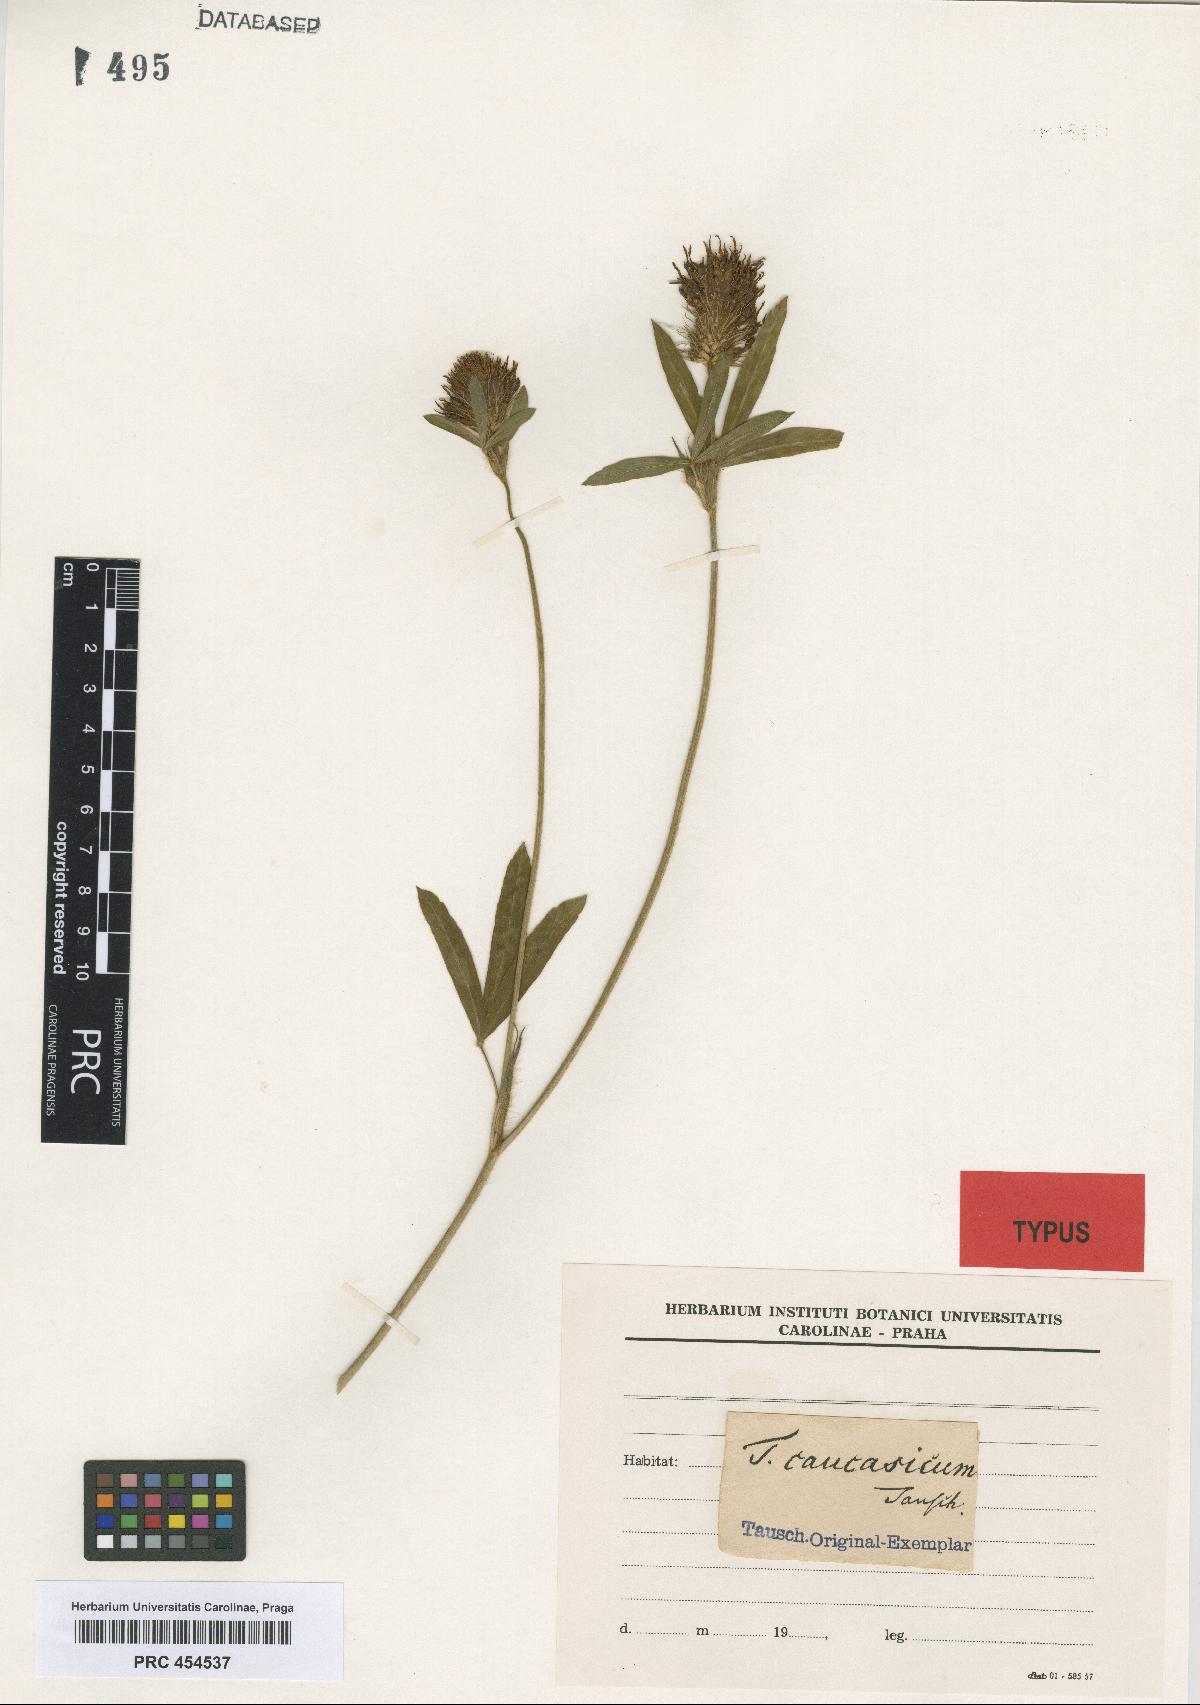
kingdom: Plantae
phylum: Tracheophyta
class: Magnoliopsida
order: Fabales
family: Fabaceae
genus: Trifolium
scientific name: Trifolium ochroleucon
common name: Sulphur clover
